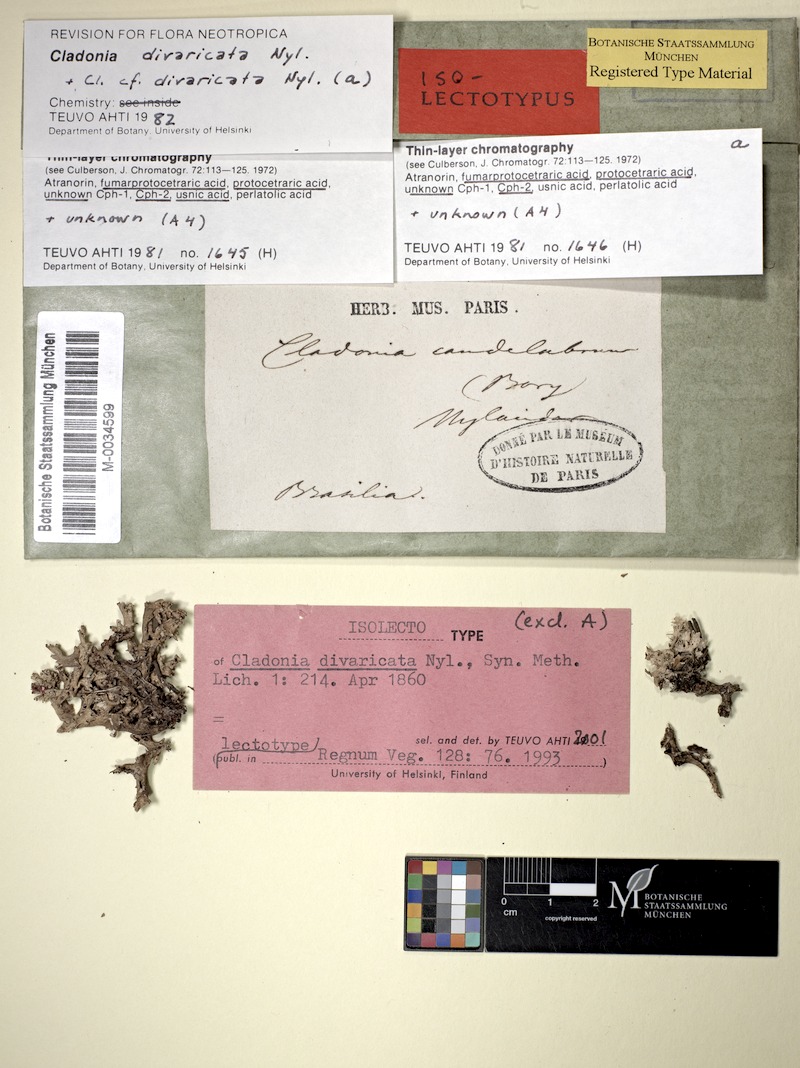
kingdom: Fungi
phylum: Ascomycota
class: Lecanoromycetes
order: Lecanorales
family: Cladoniaceae
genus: Cladonia
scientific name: Cladonia divaricata
